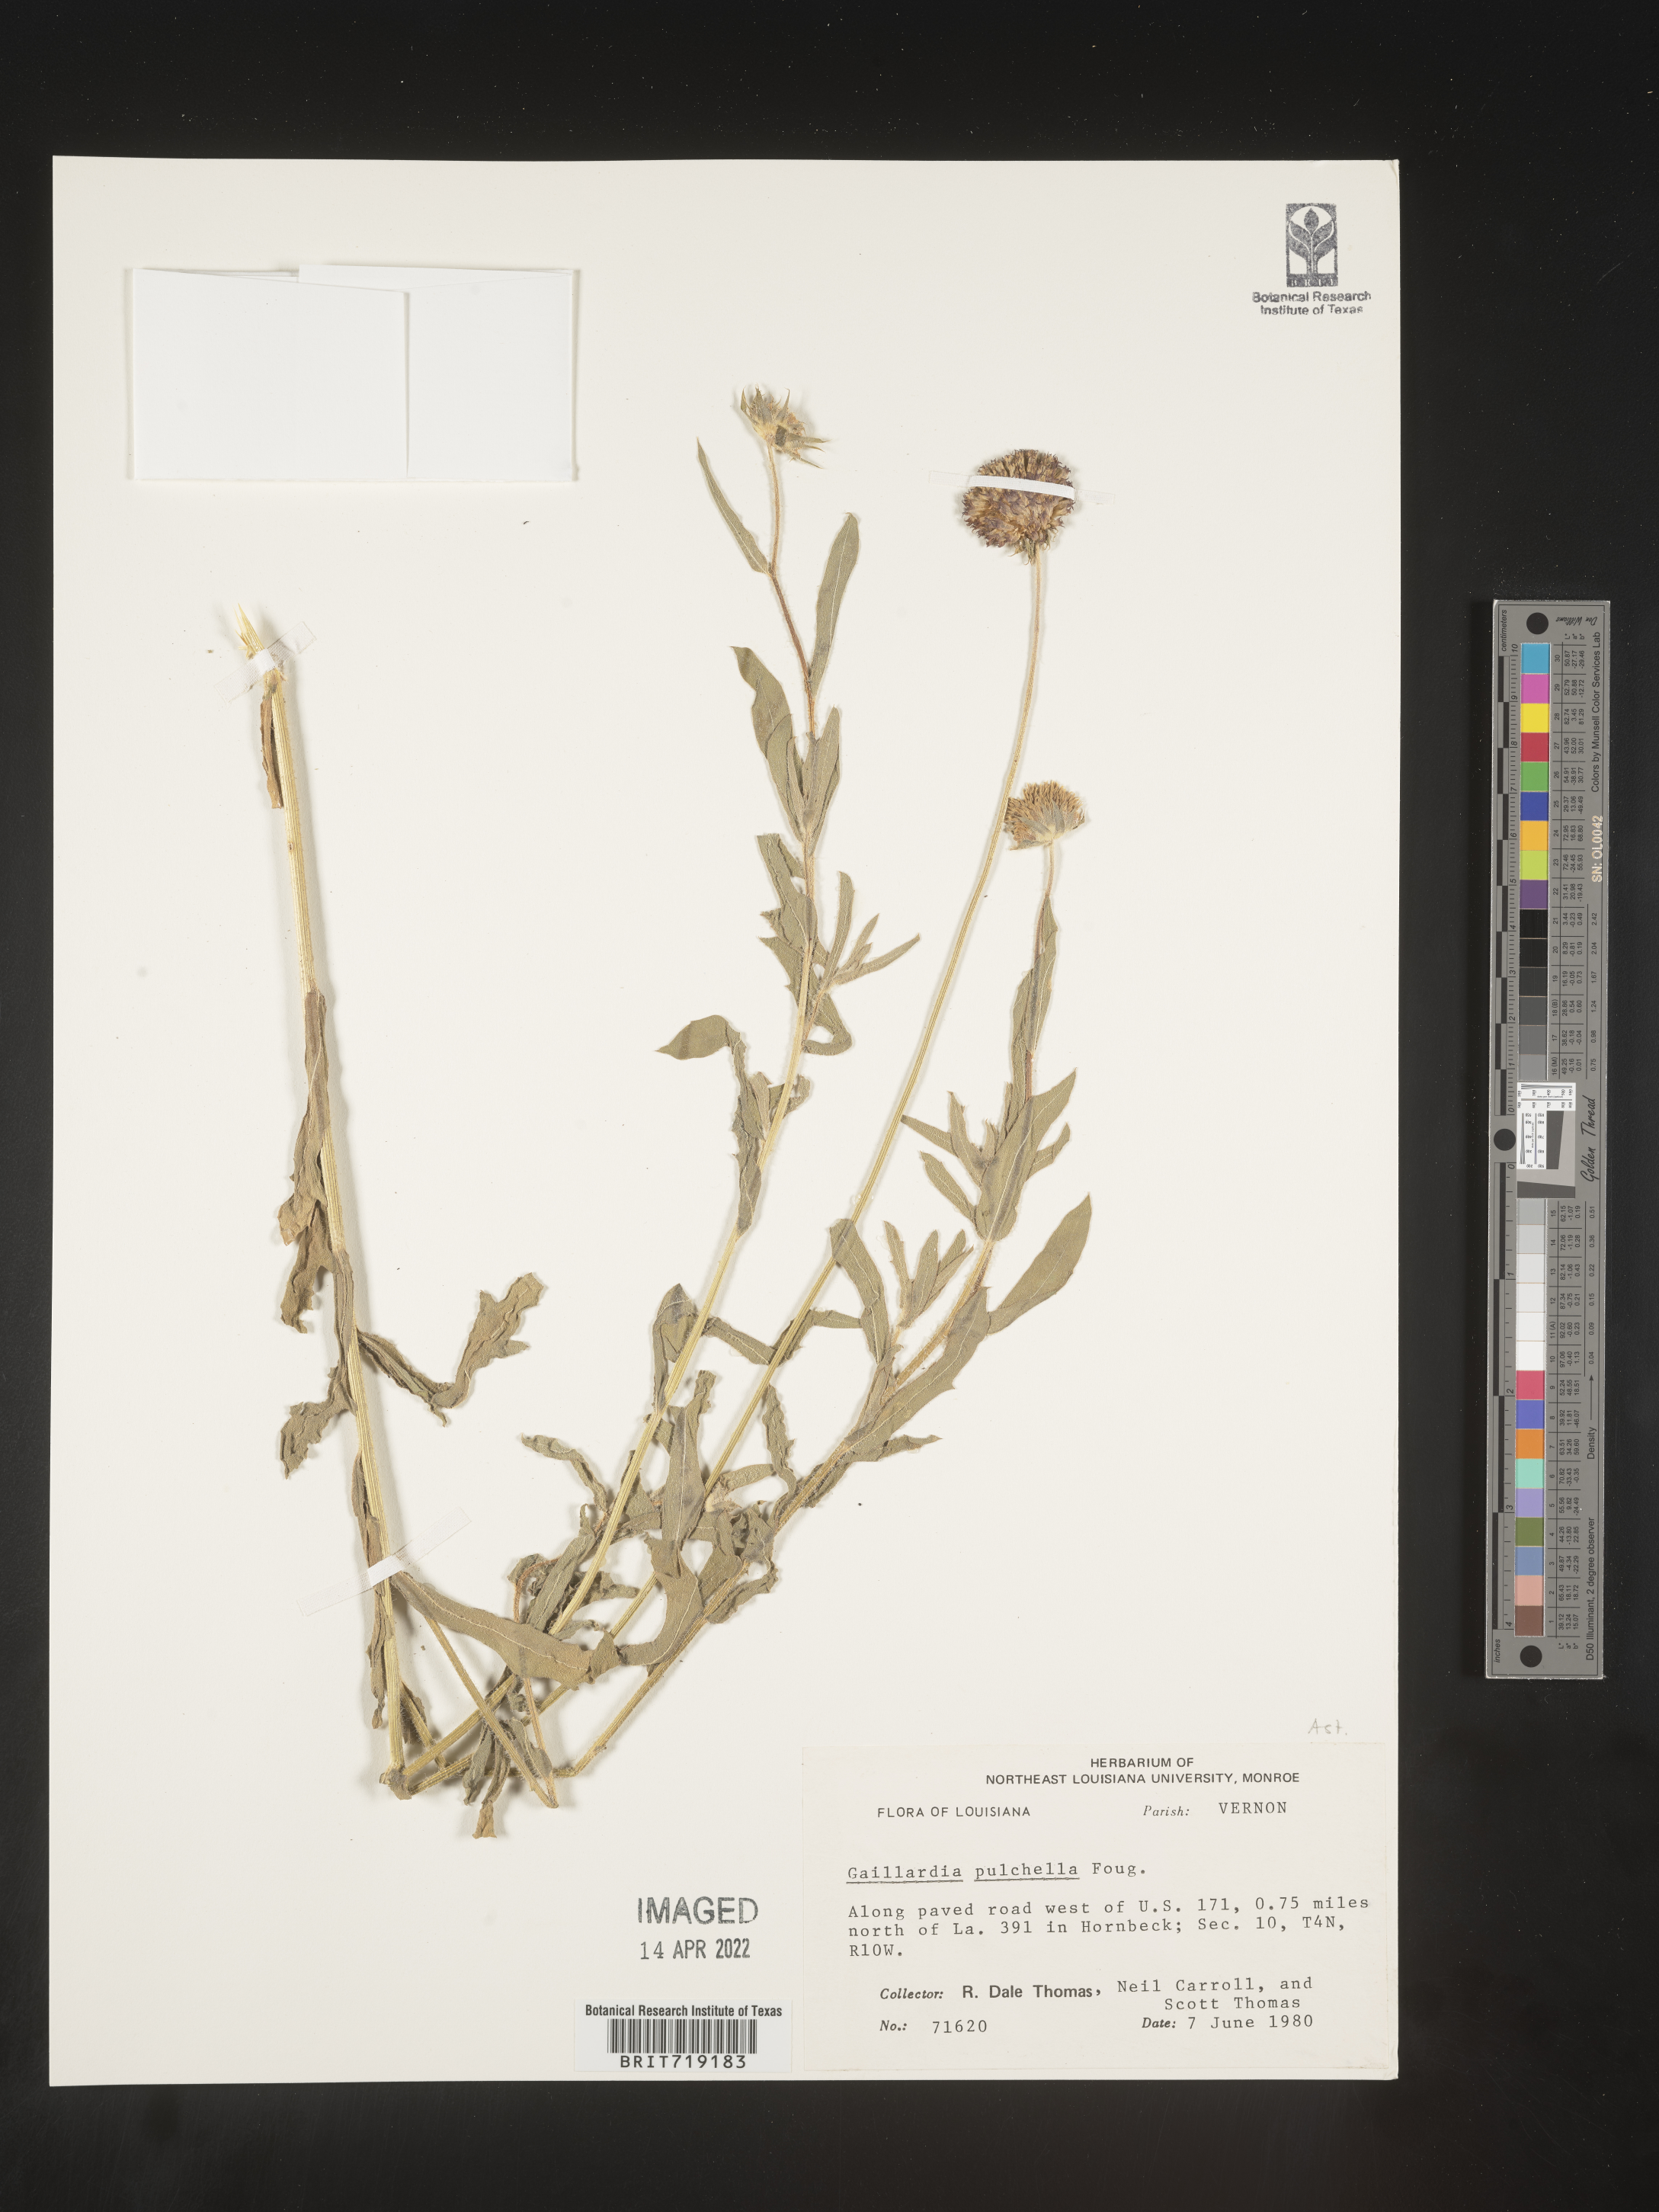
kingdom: Plantae
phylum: Tracheophyta
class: Magnoliopsida
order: Asterales
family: Asteraceae
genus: Gaillardia
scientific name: Gaillardia pulchella
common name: Firewheel
